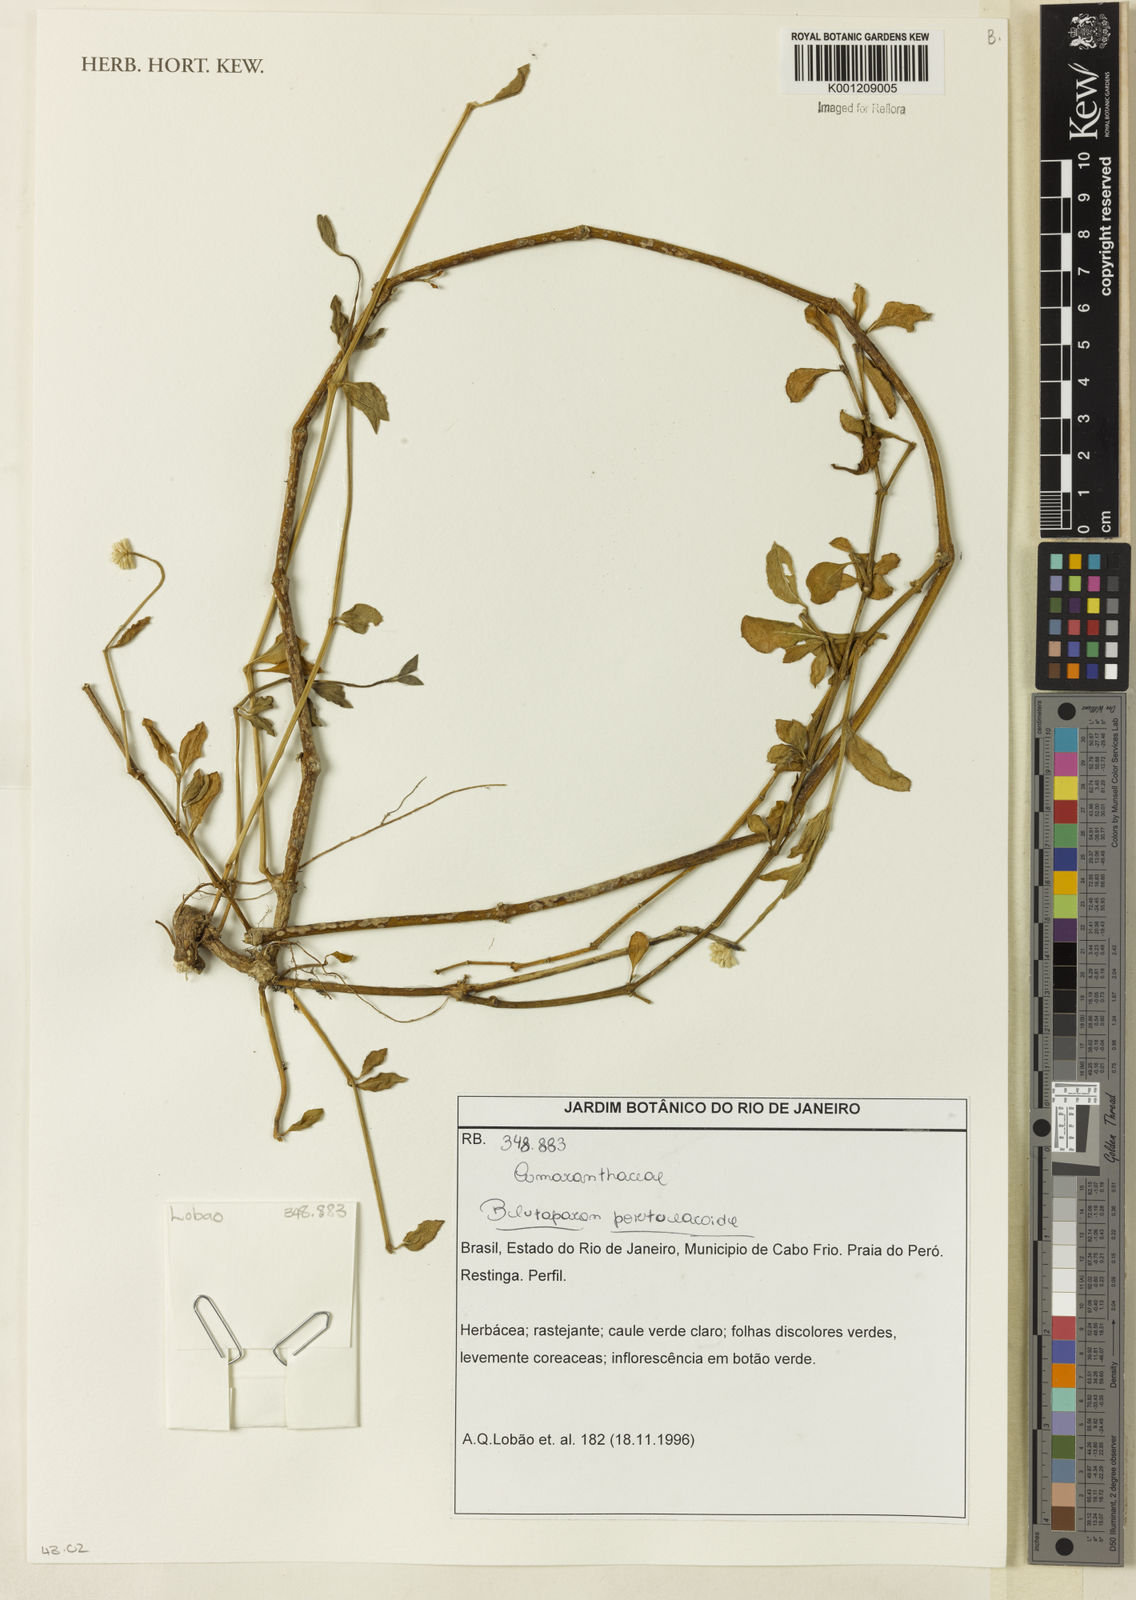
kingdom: Plantae
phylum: Tracheophyta
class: Magnoliopsida
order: Caryophyllales
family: Amaranthaceae
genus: Gomphrena
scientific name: Gomphrena portulacoides
